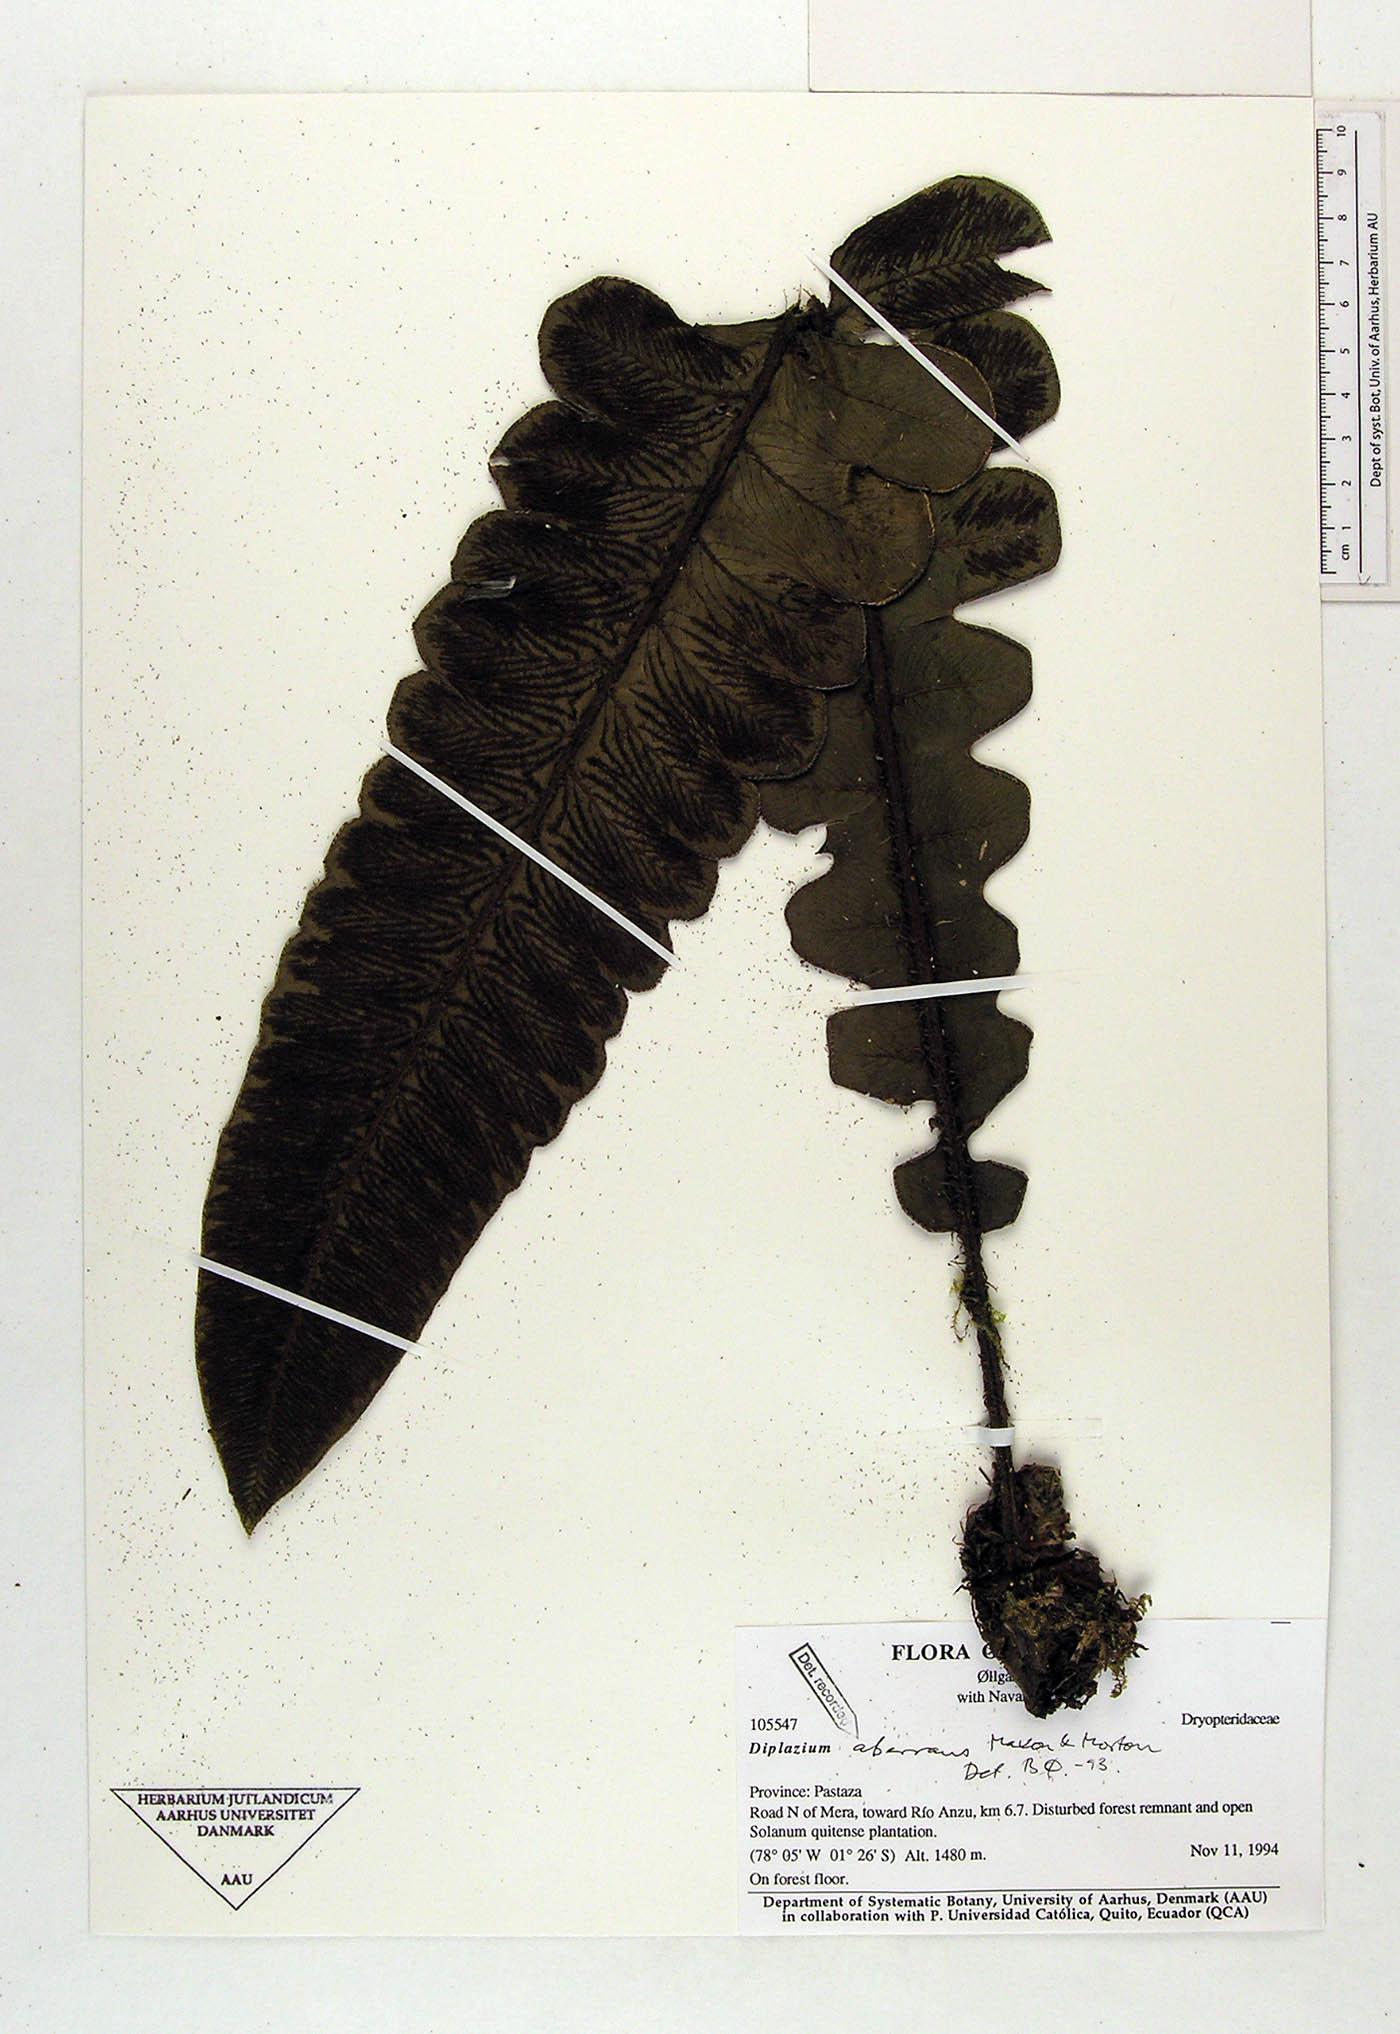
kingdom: Plantae
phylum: Tracheophyta
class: Polypodiopsida
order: Polypodiales
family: Athyriaceae
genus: Diplazium
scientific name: Diplazium aberrans
